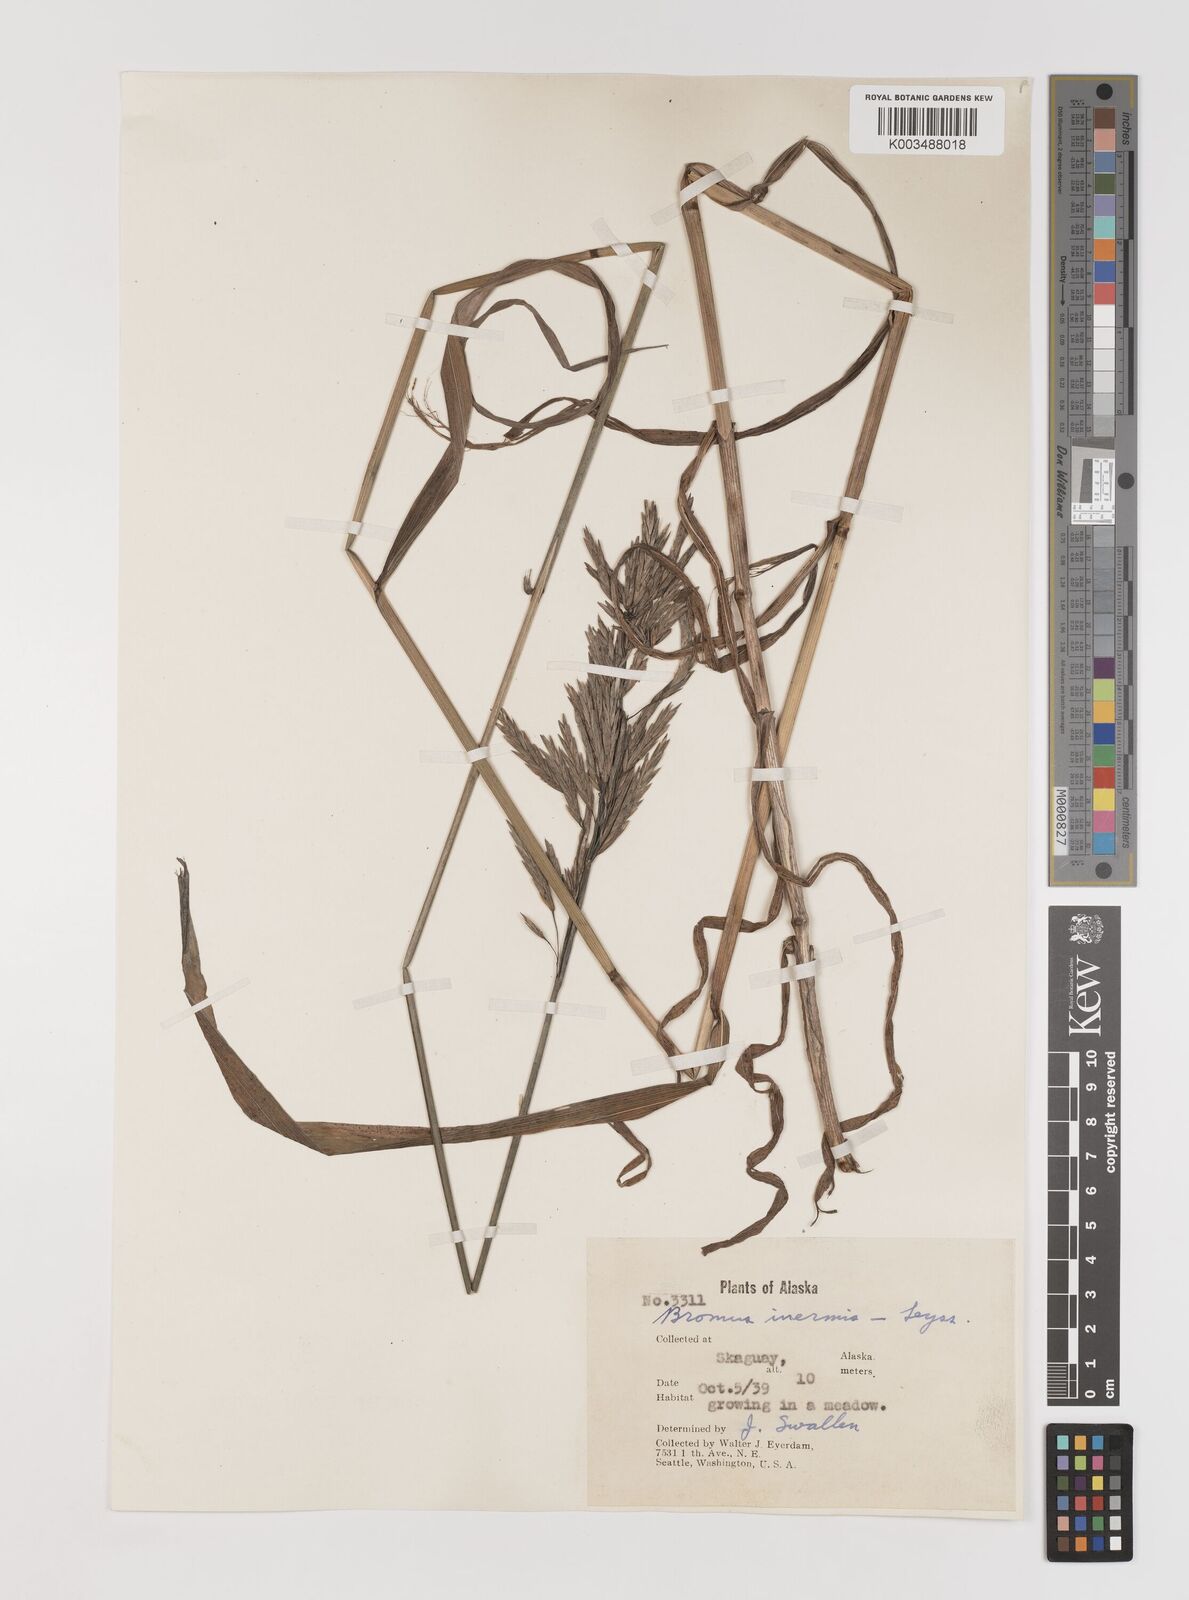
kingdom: Plantae
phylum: Tracheophyta
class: Liliopsida
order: Poales
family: Poaceae
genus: Bromus
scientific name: Bromus inermis
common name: Smooth brome
